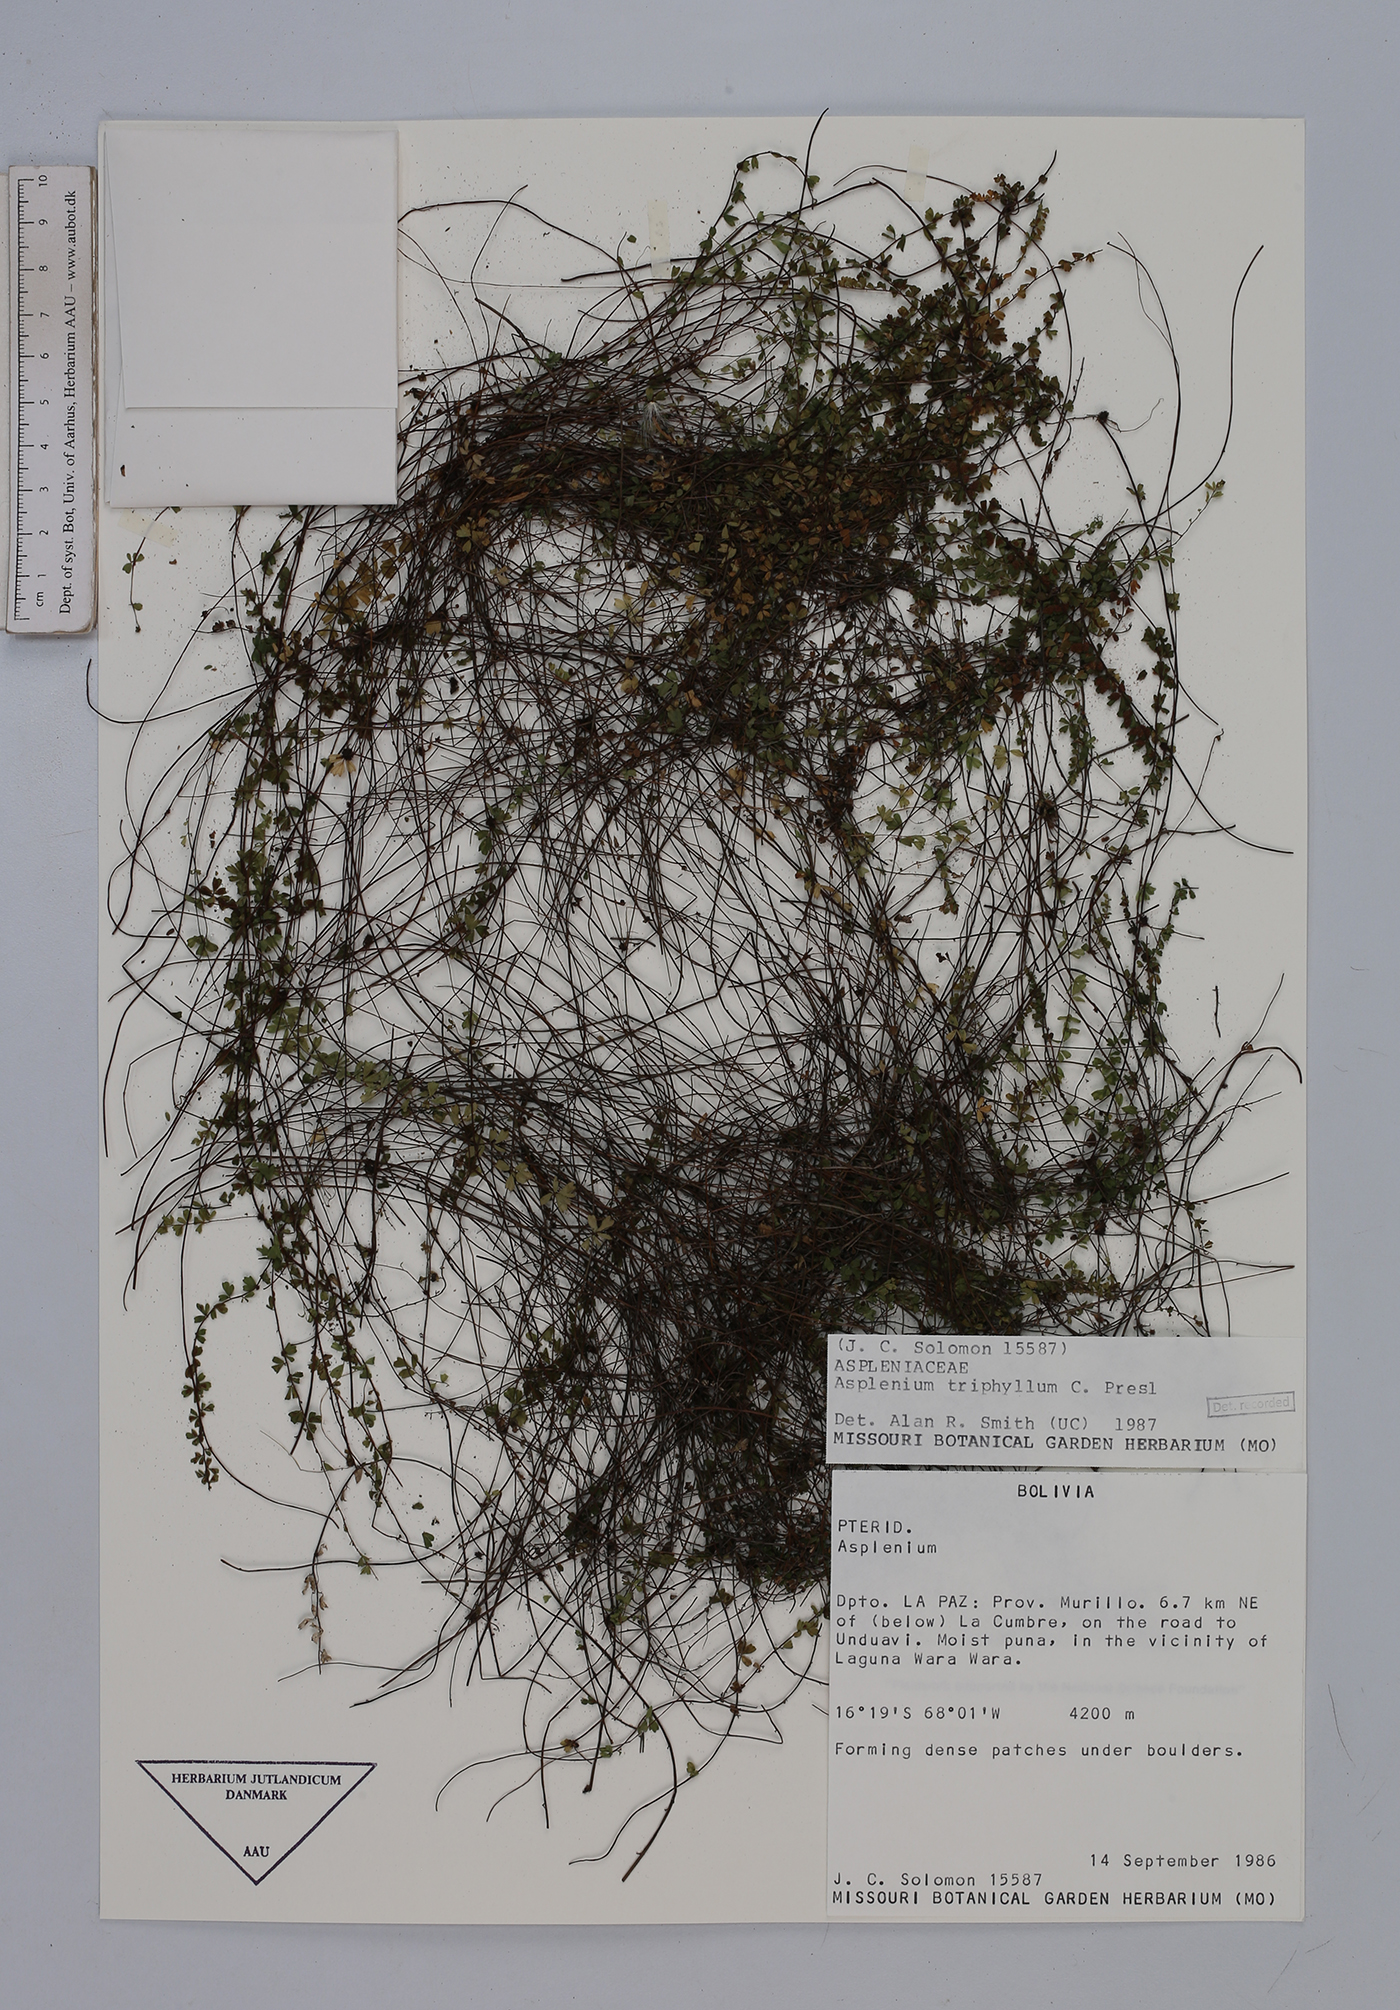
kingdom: Plantae
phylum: Tracheophyta
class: Polypodiopsida
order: Polypodiales
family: Aspleniaceae
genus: Asplenium
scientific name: Asplenium triphyllum
